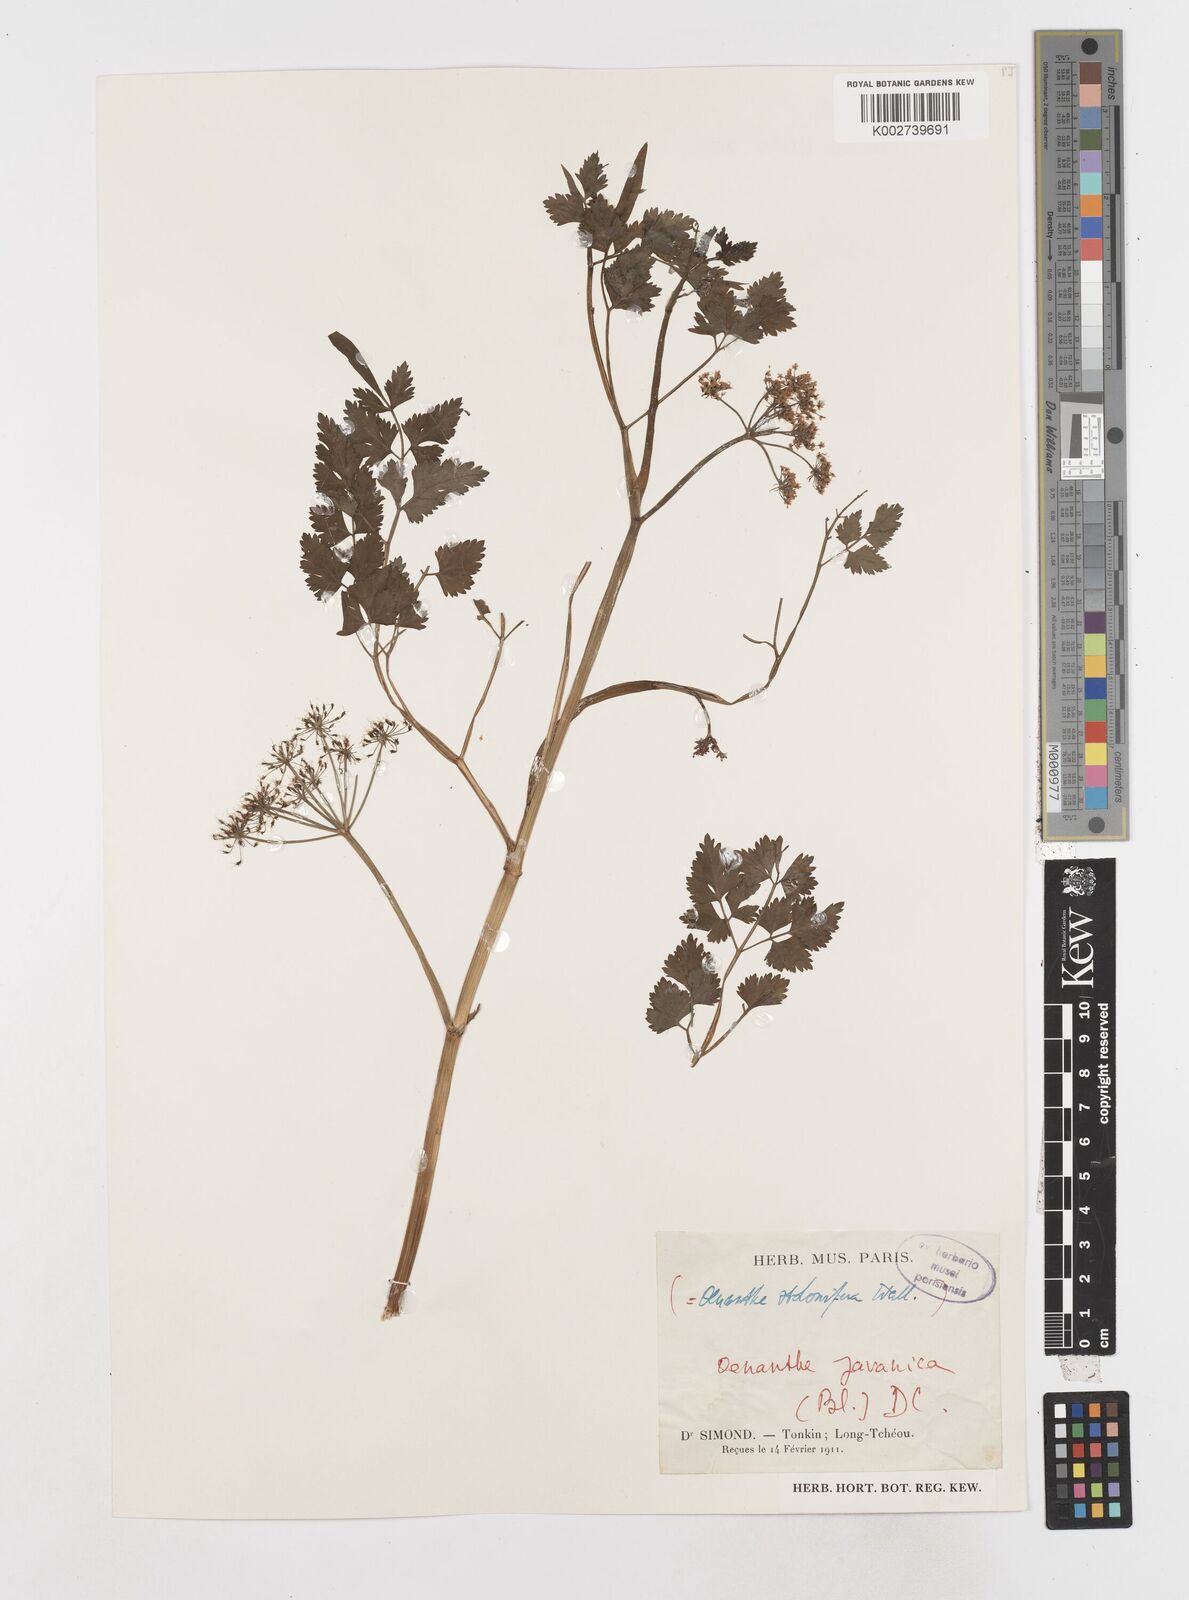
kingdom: Plantae
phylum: Tracheophyta
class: Magnoliopsida
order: Apiales
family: Apiaceae
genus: Oenanthe
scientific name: Oenanthe javanica
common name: Java water-dropwort
